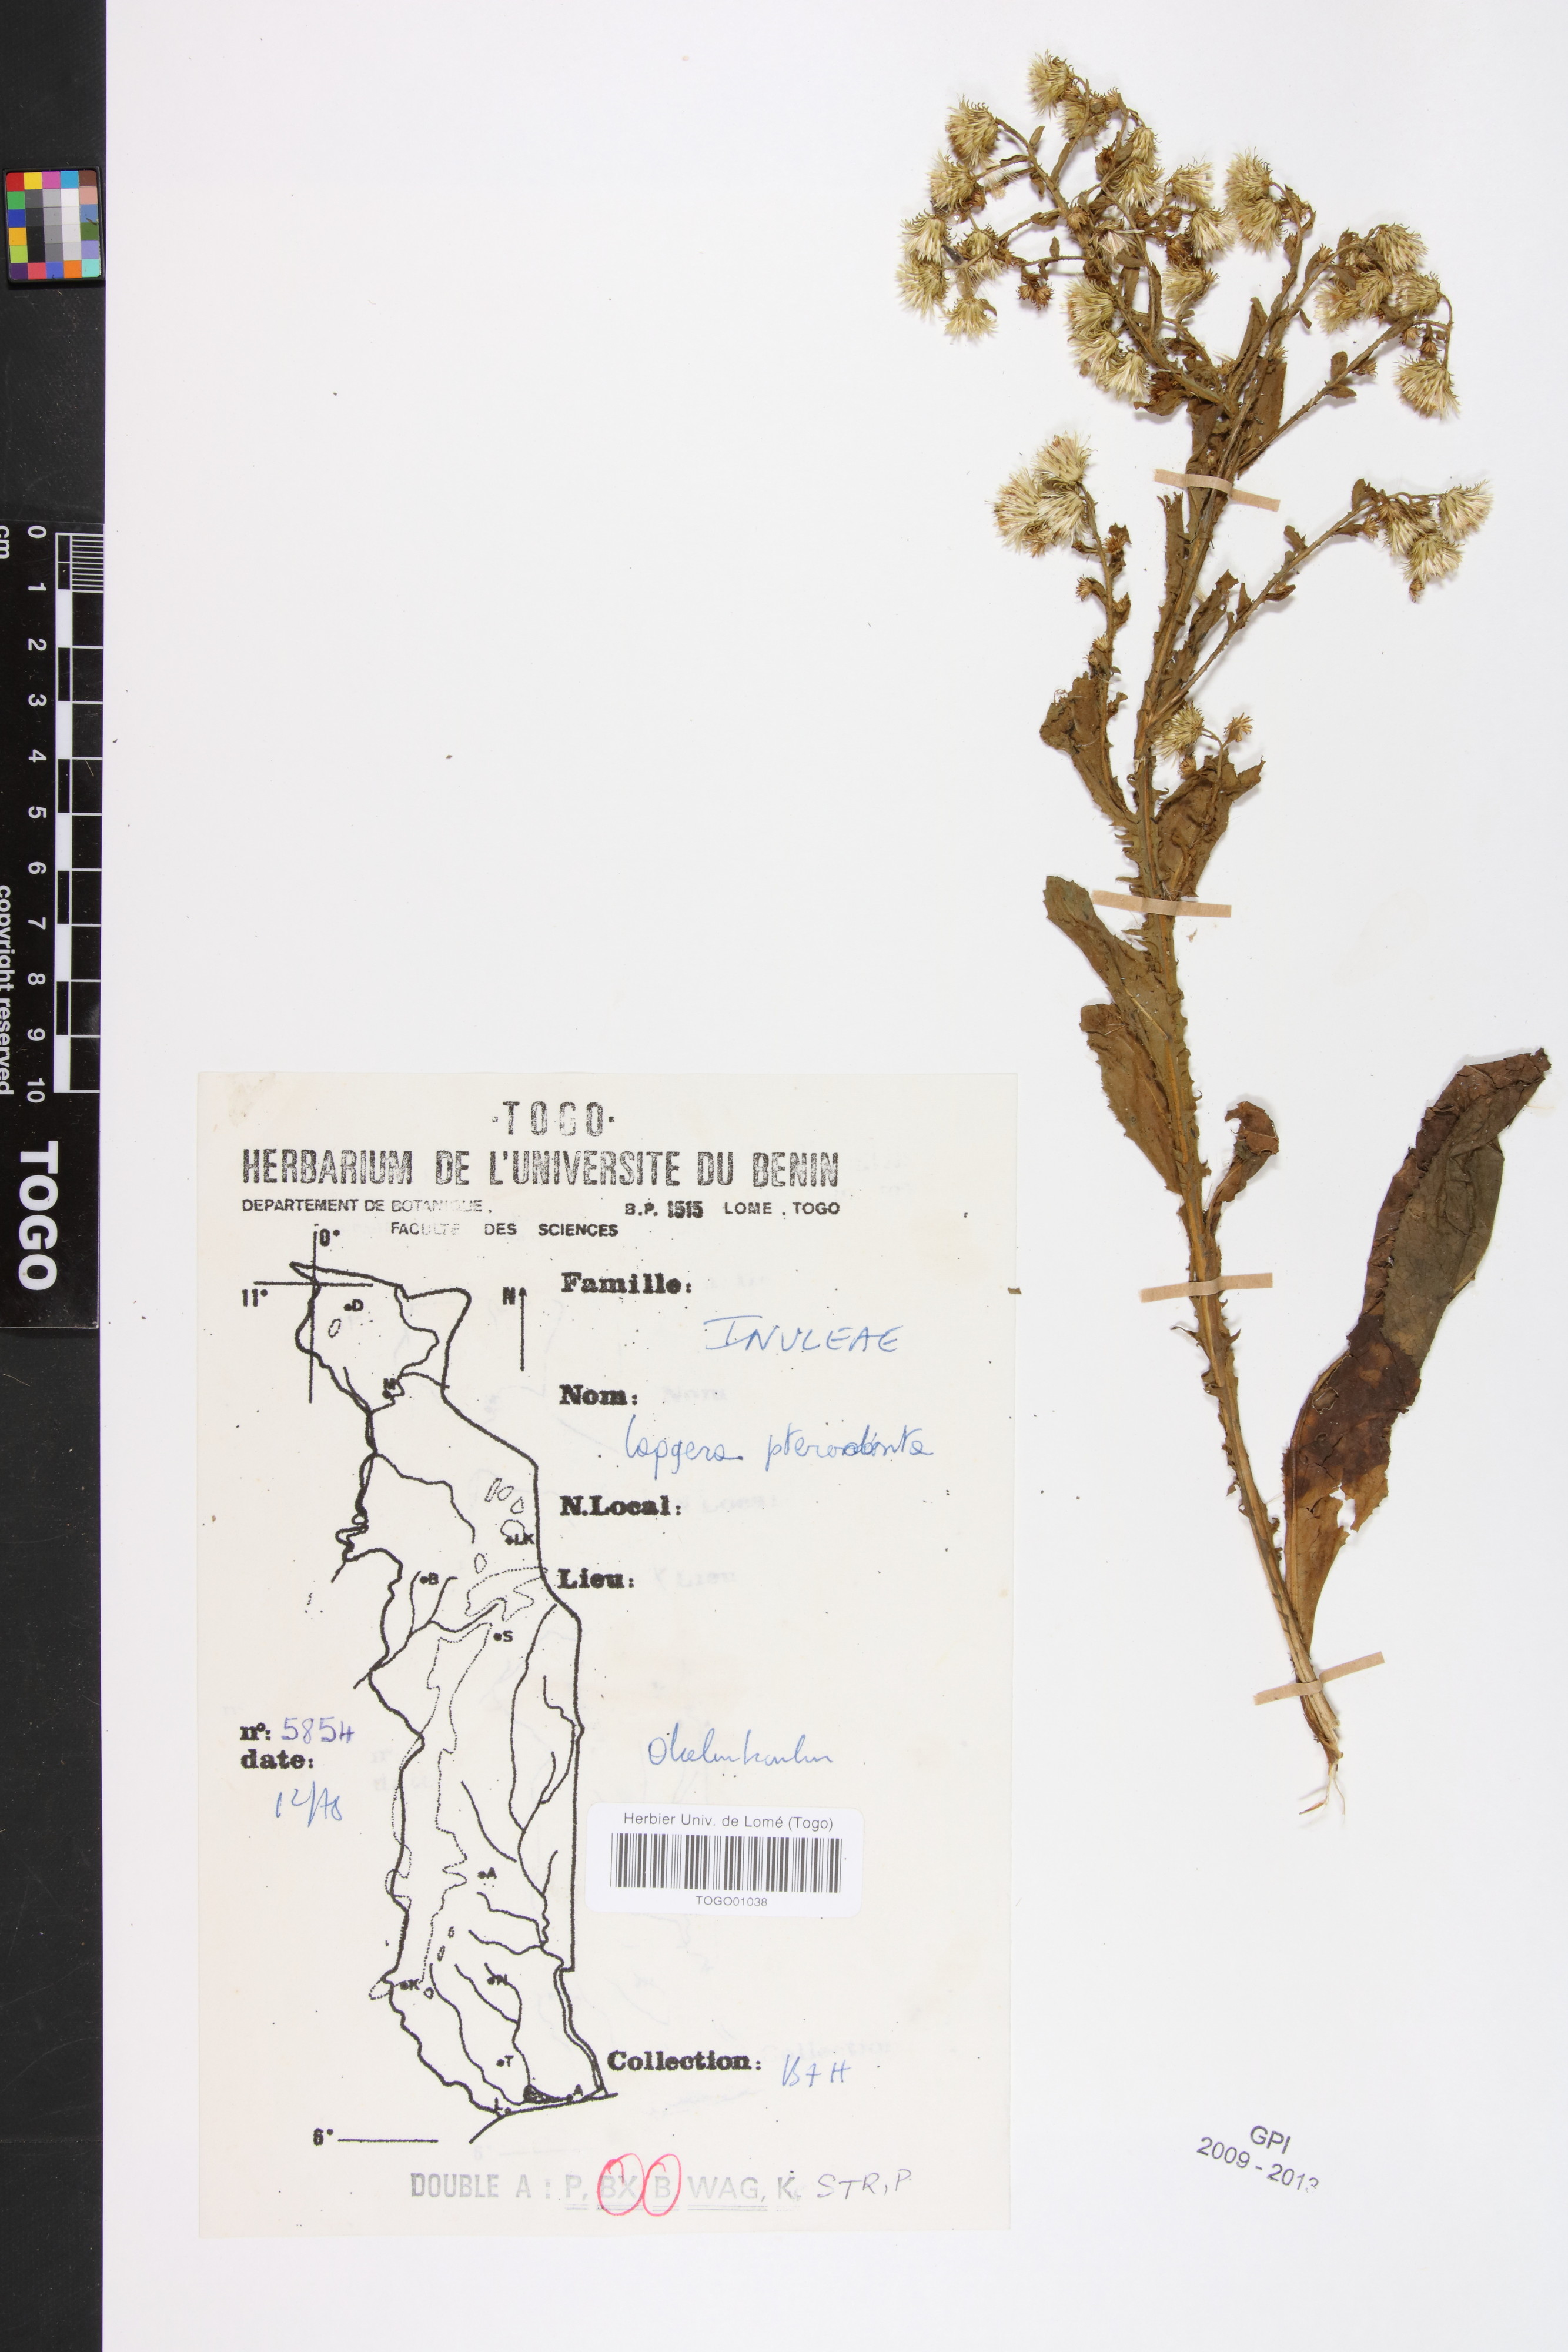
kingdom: Plantae
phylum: Tracheophyta
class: Magnoliopsida
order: Asterales
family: Asteraceae
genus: Laggera
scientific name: Laggera crispata
